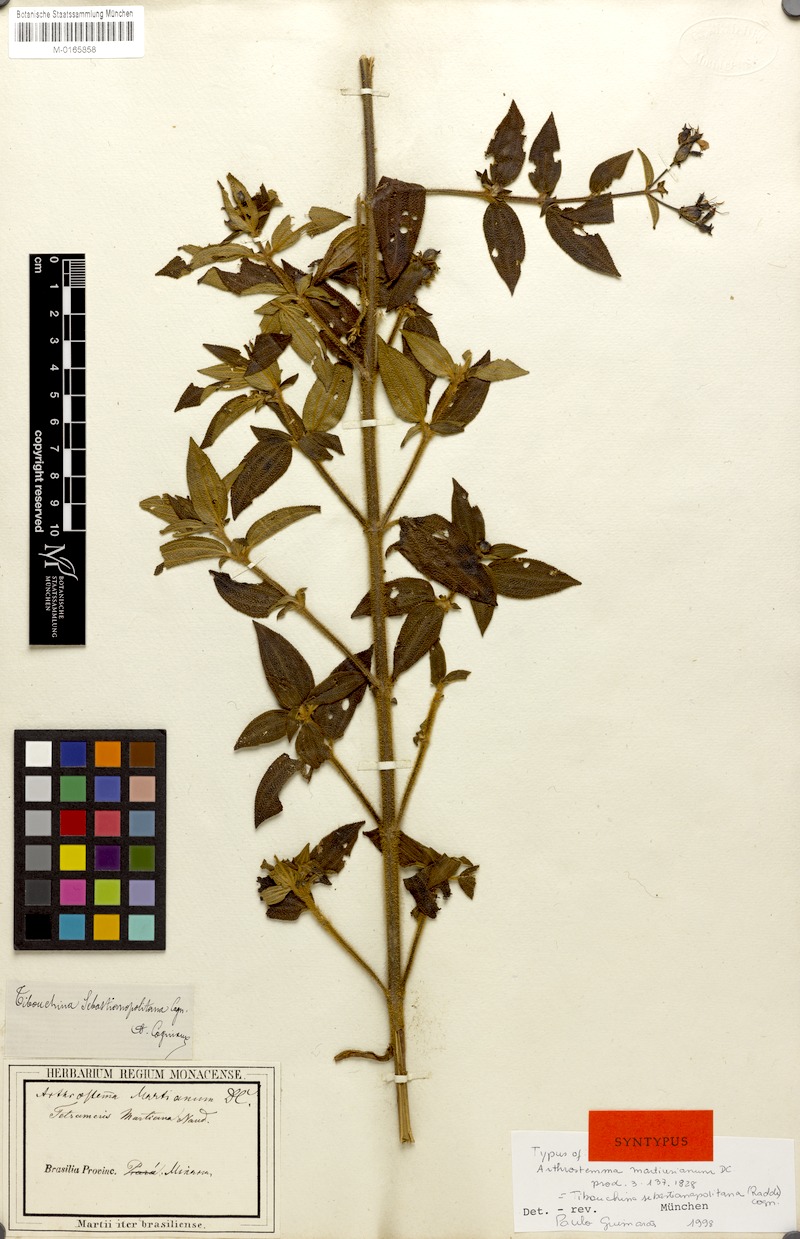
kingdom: Plantae
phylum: Tracheophyta
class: Magnoliopsida
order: Myrtales
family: Melastomataceae
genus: Chaetogastra
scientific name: Chaetogastra sebastianopolitana
